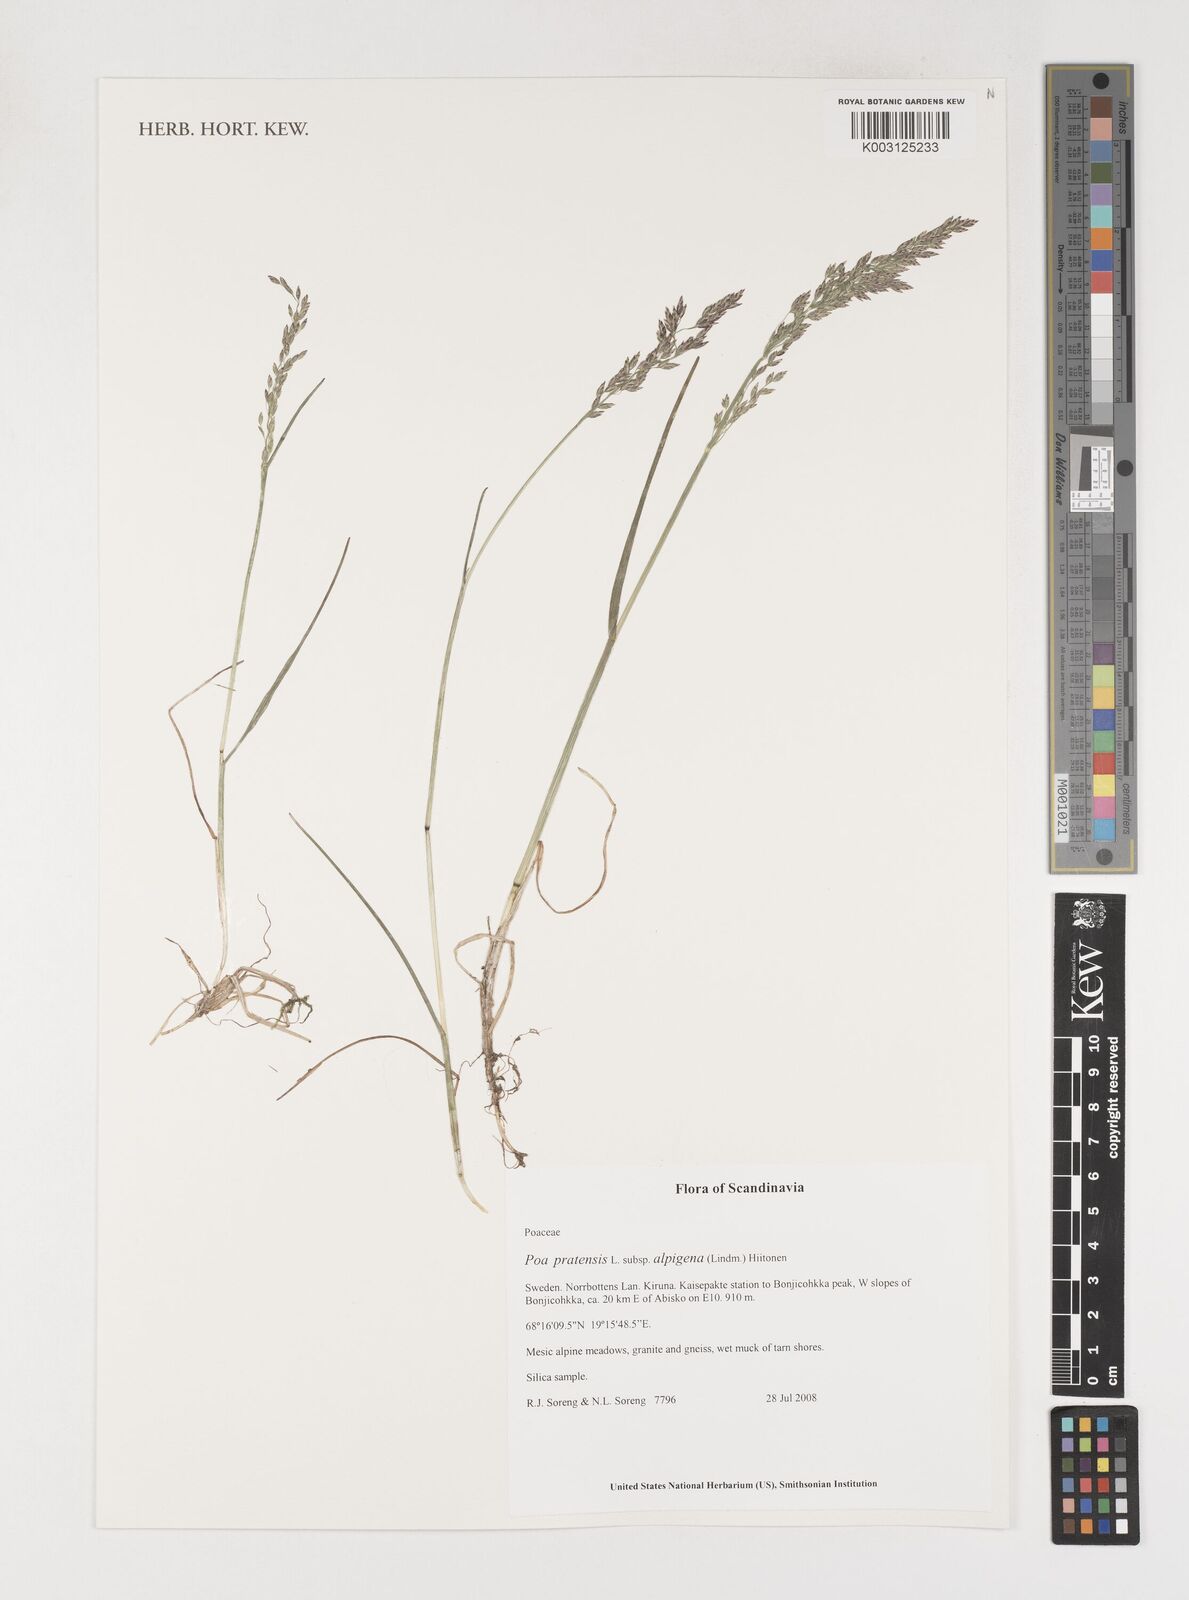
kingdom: Plantae
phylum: Tracheophyta
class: Liliopsida
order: Poales
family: Poaceae
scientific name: Poaceae
